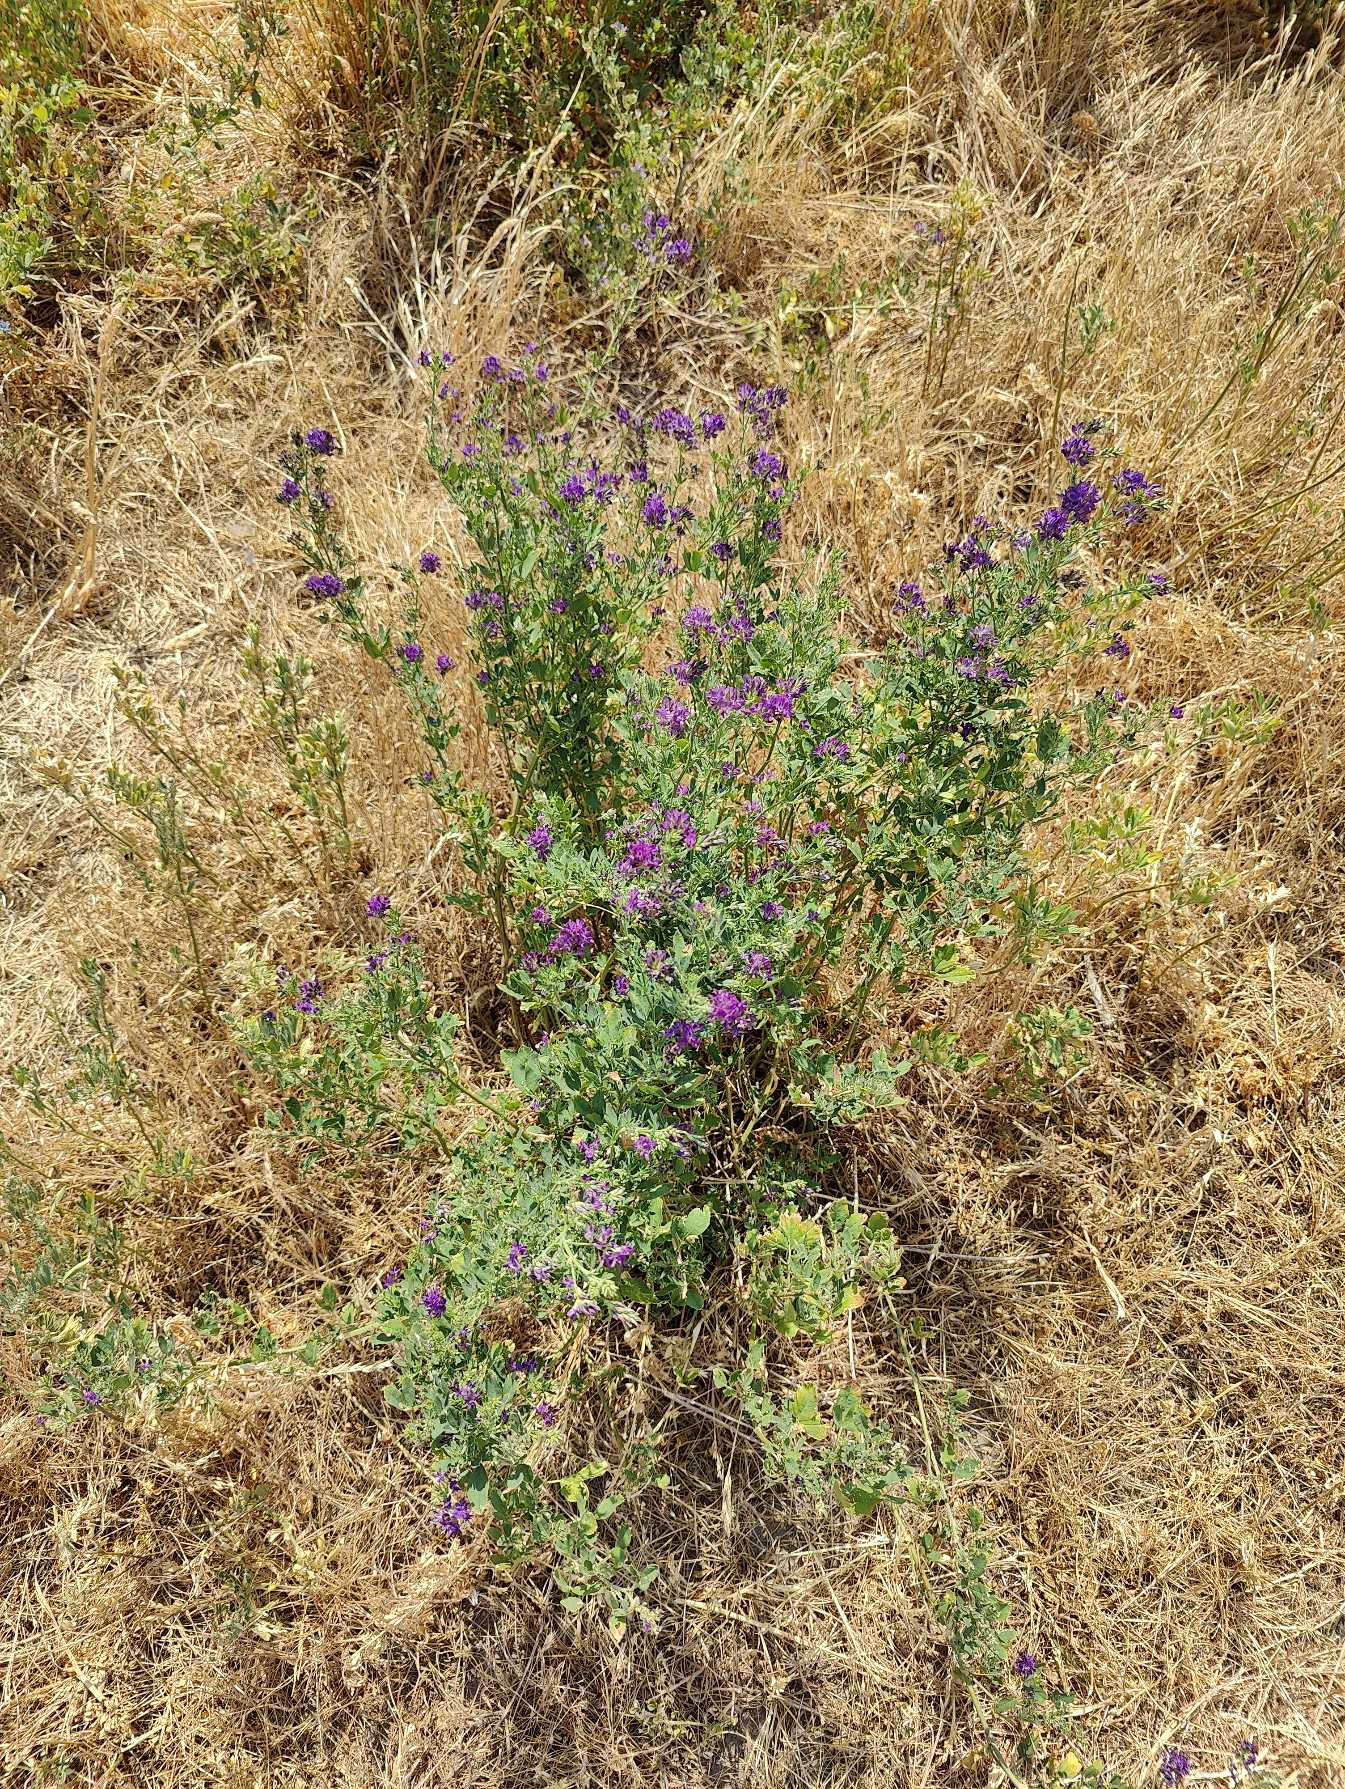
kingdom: Plantae
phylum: Tracheophyta
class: Magnoliopsida
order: Fabales
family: Fabaceae
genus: Medicago
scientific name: Medicago sativa
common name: Lucerne
